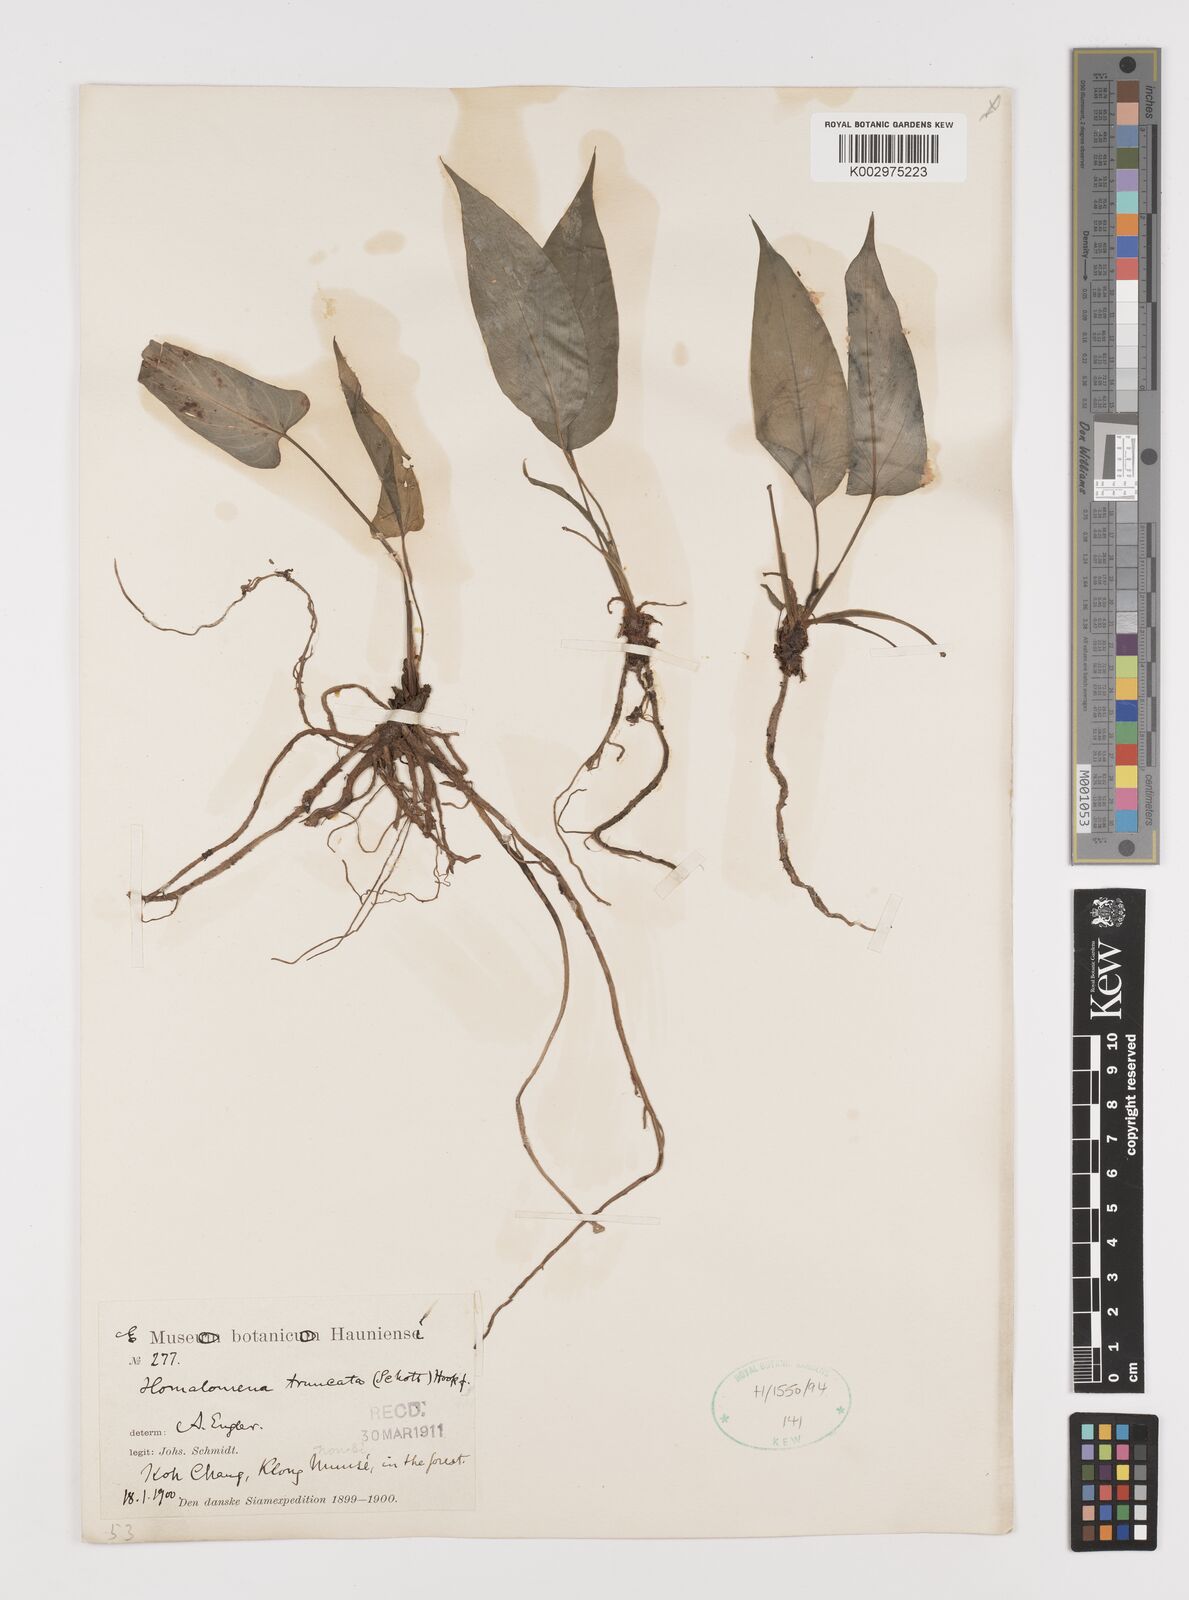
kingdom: Plantae
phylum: Tracheophyta
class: Liliopsida
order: Alismatales
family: Araceae
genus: Homalomena
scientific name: Homalomena truncata
